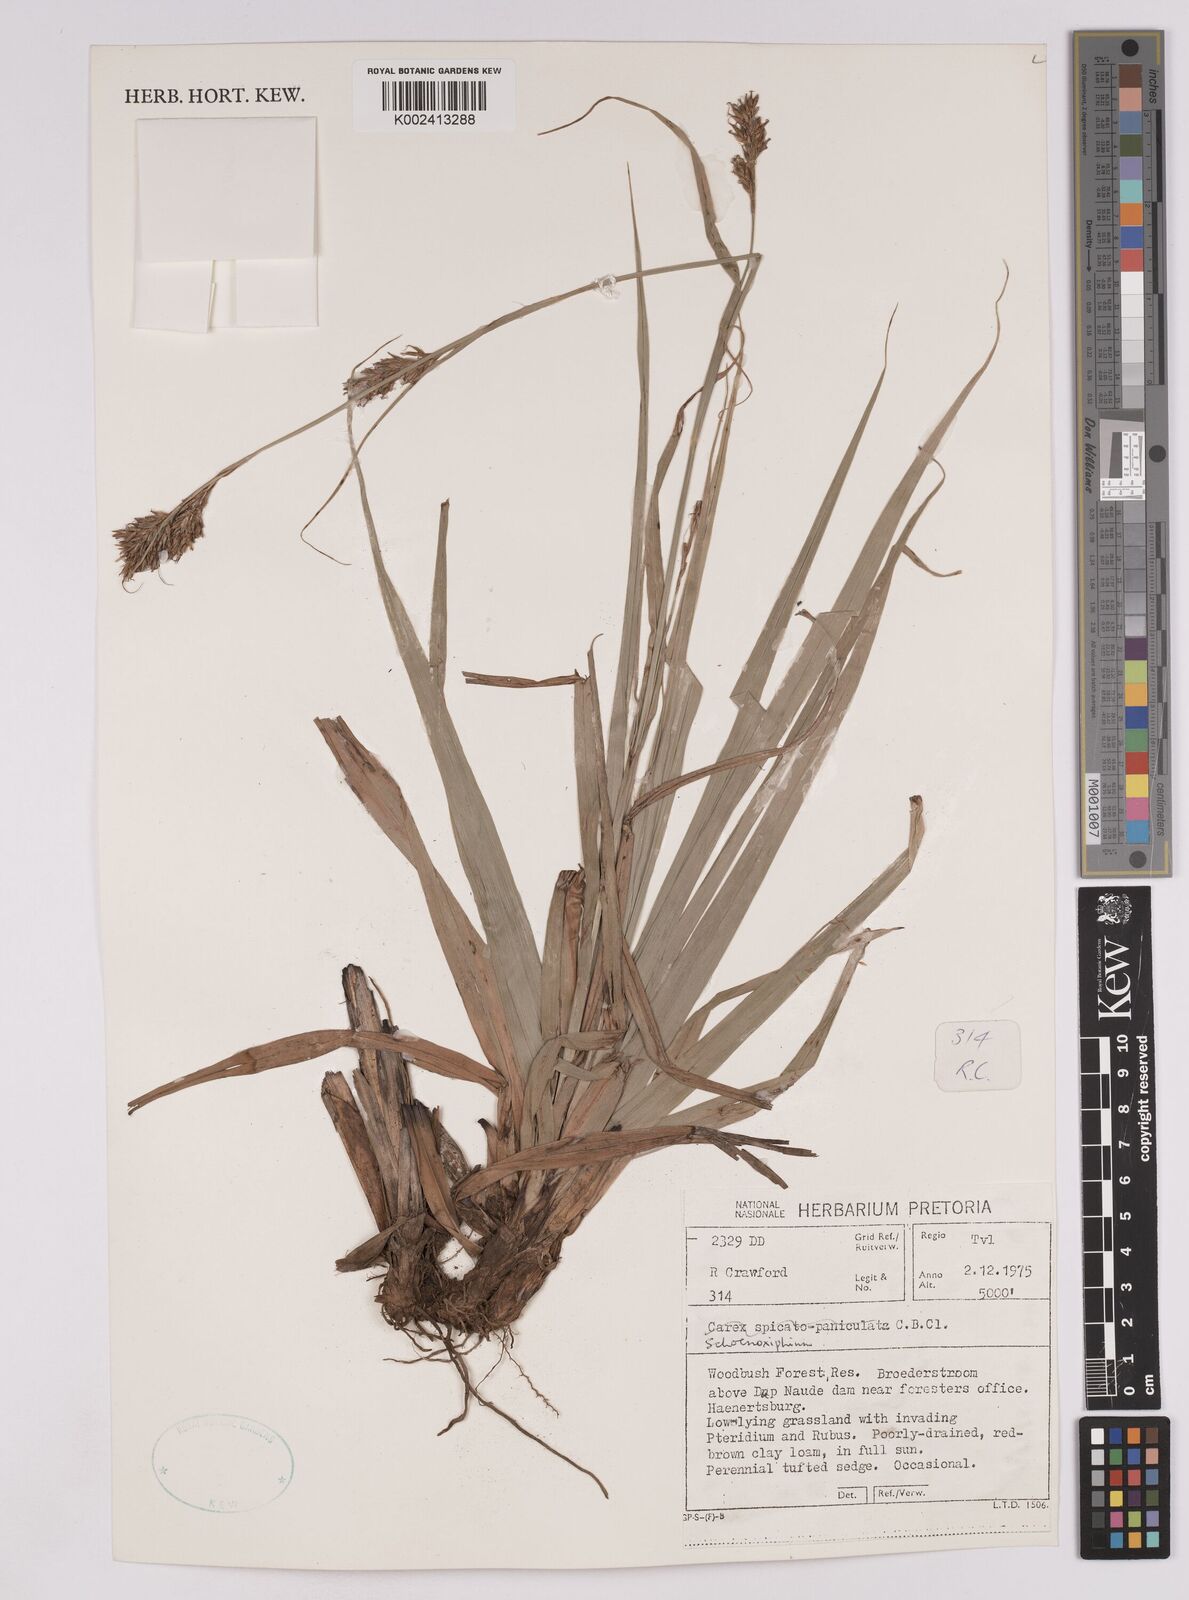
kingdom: Plantae
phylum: Tracheophyta
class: Liliopsida
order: Poales
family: Cyperaceae
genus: Carex
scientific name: Carex
